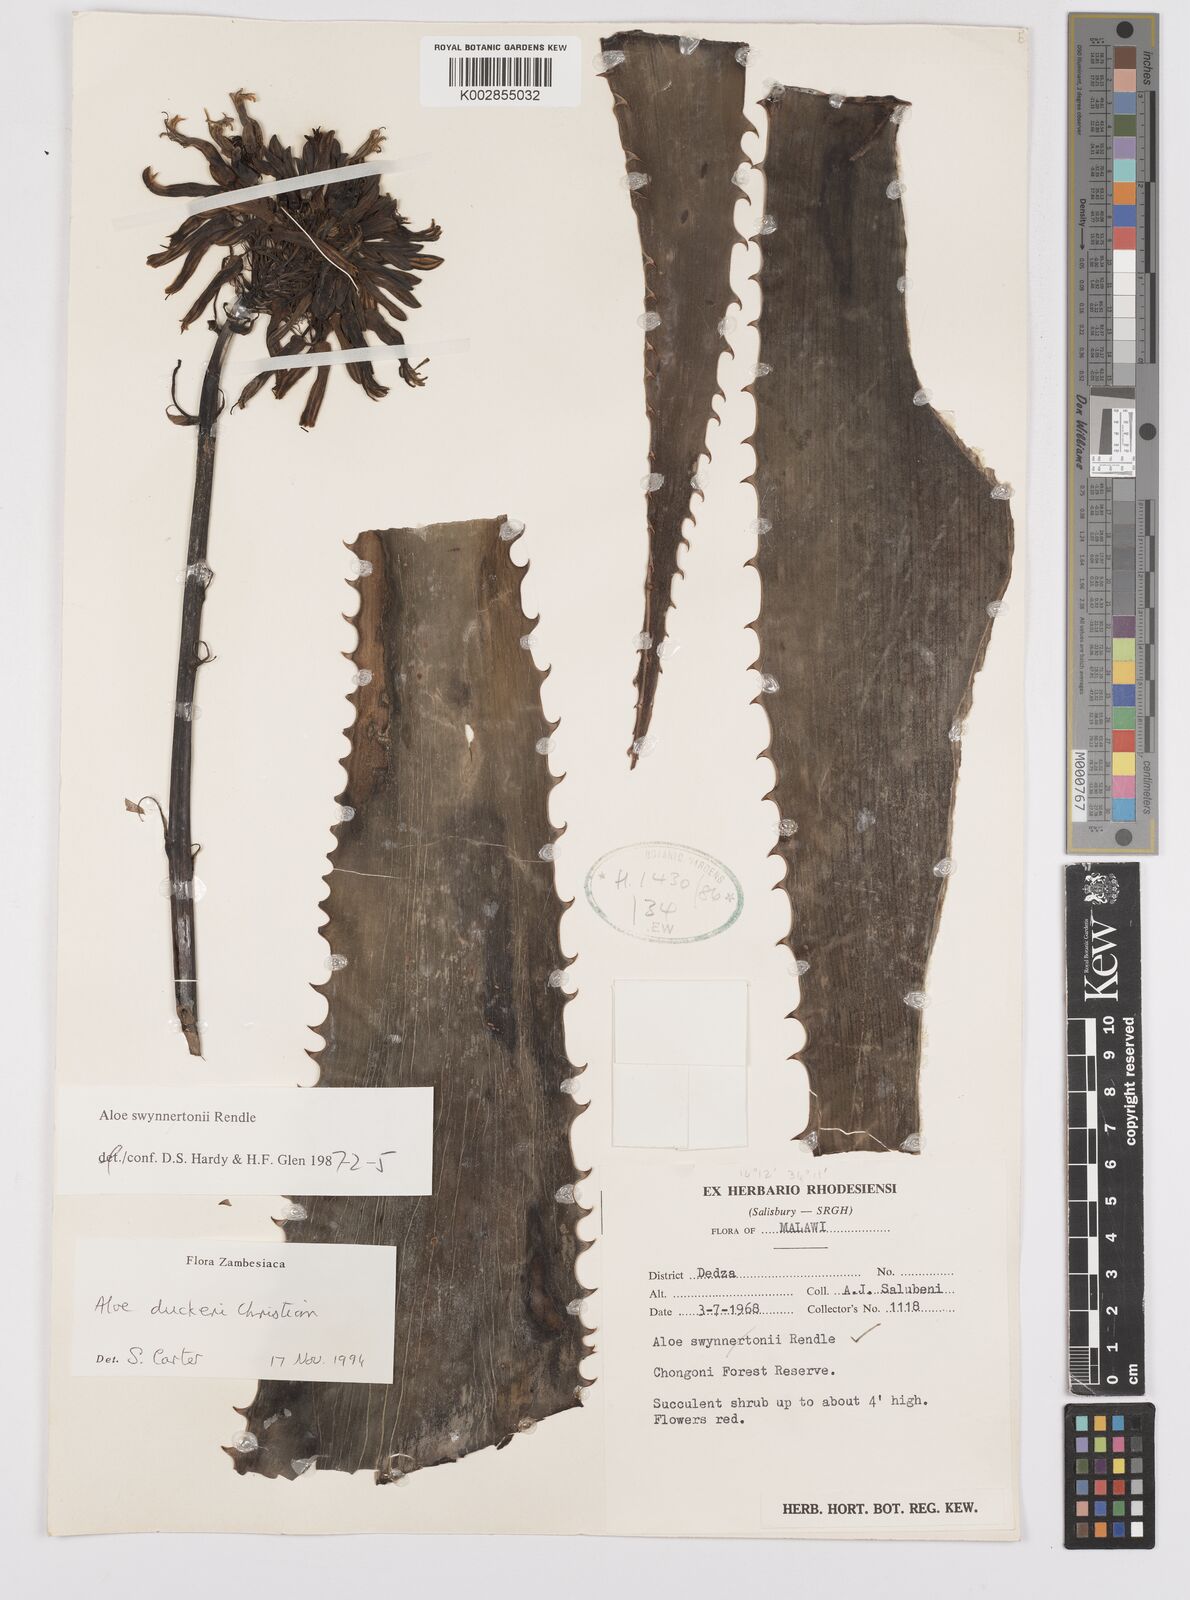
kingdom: Plantae
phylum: Tracheophyta
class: Liliopsida
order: Asparagales
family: Asphodelaceae
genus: Aloe
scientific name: Aloe swynnertonii
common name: Swynnerton's aloe
